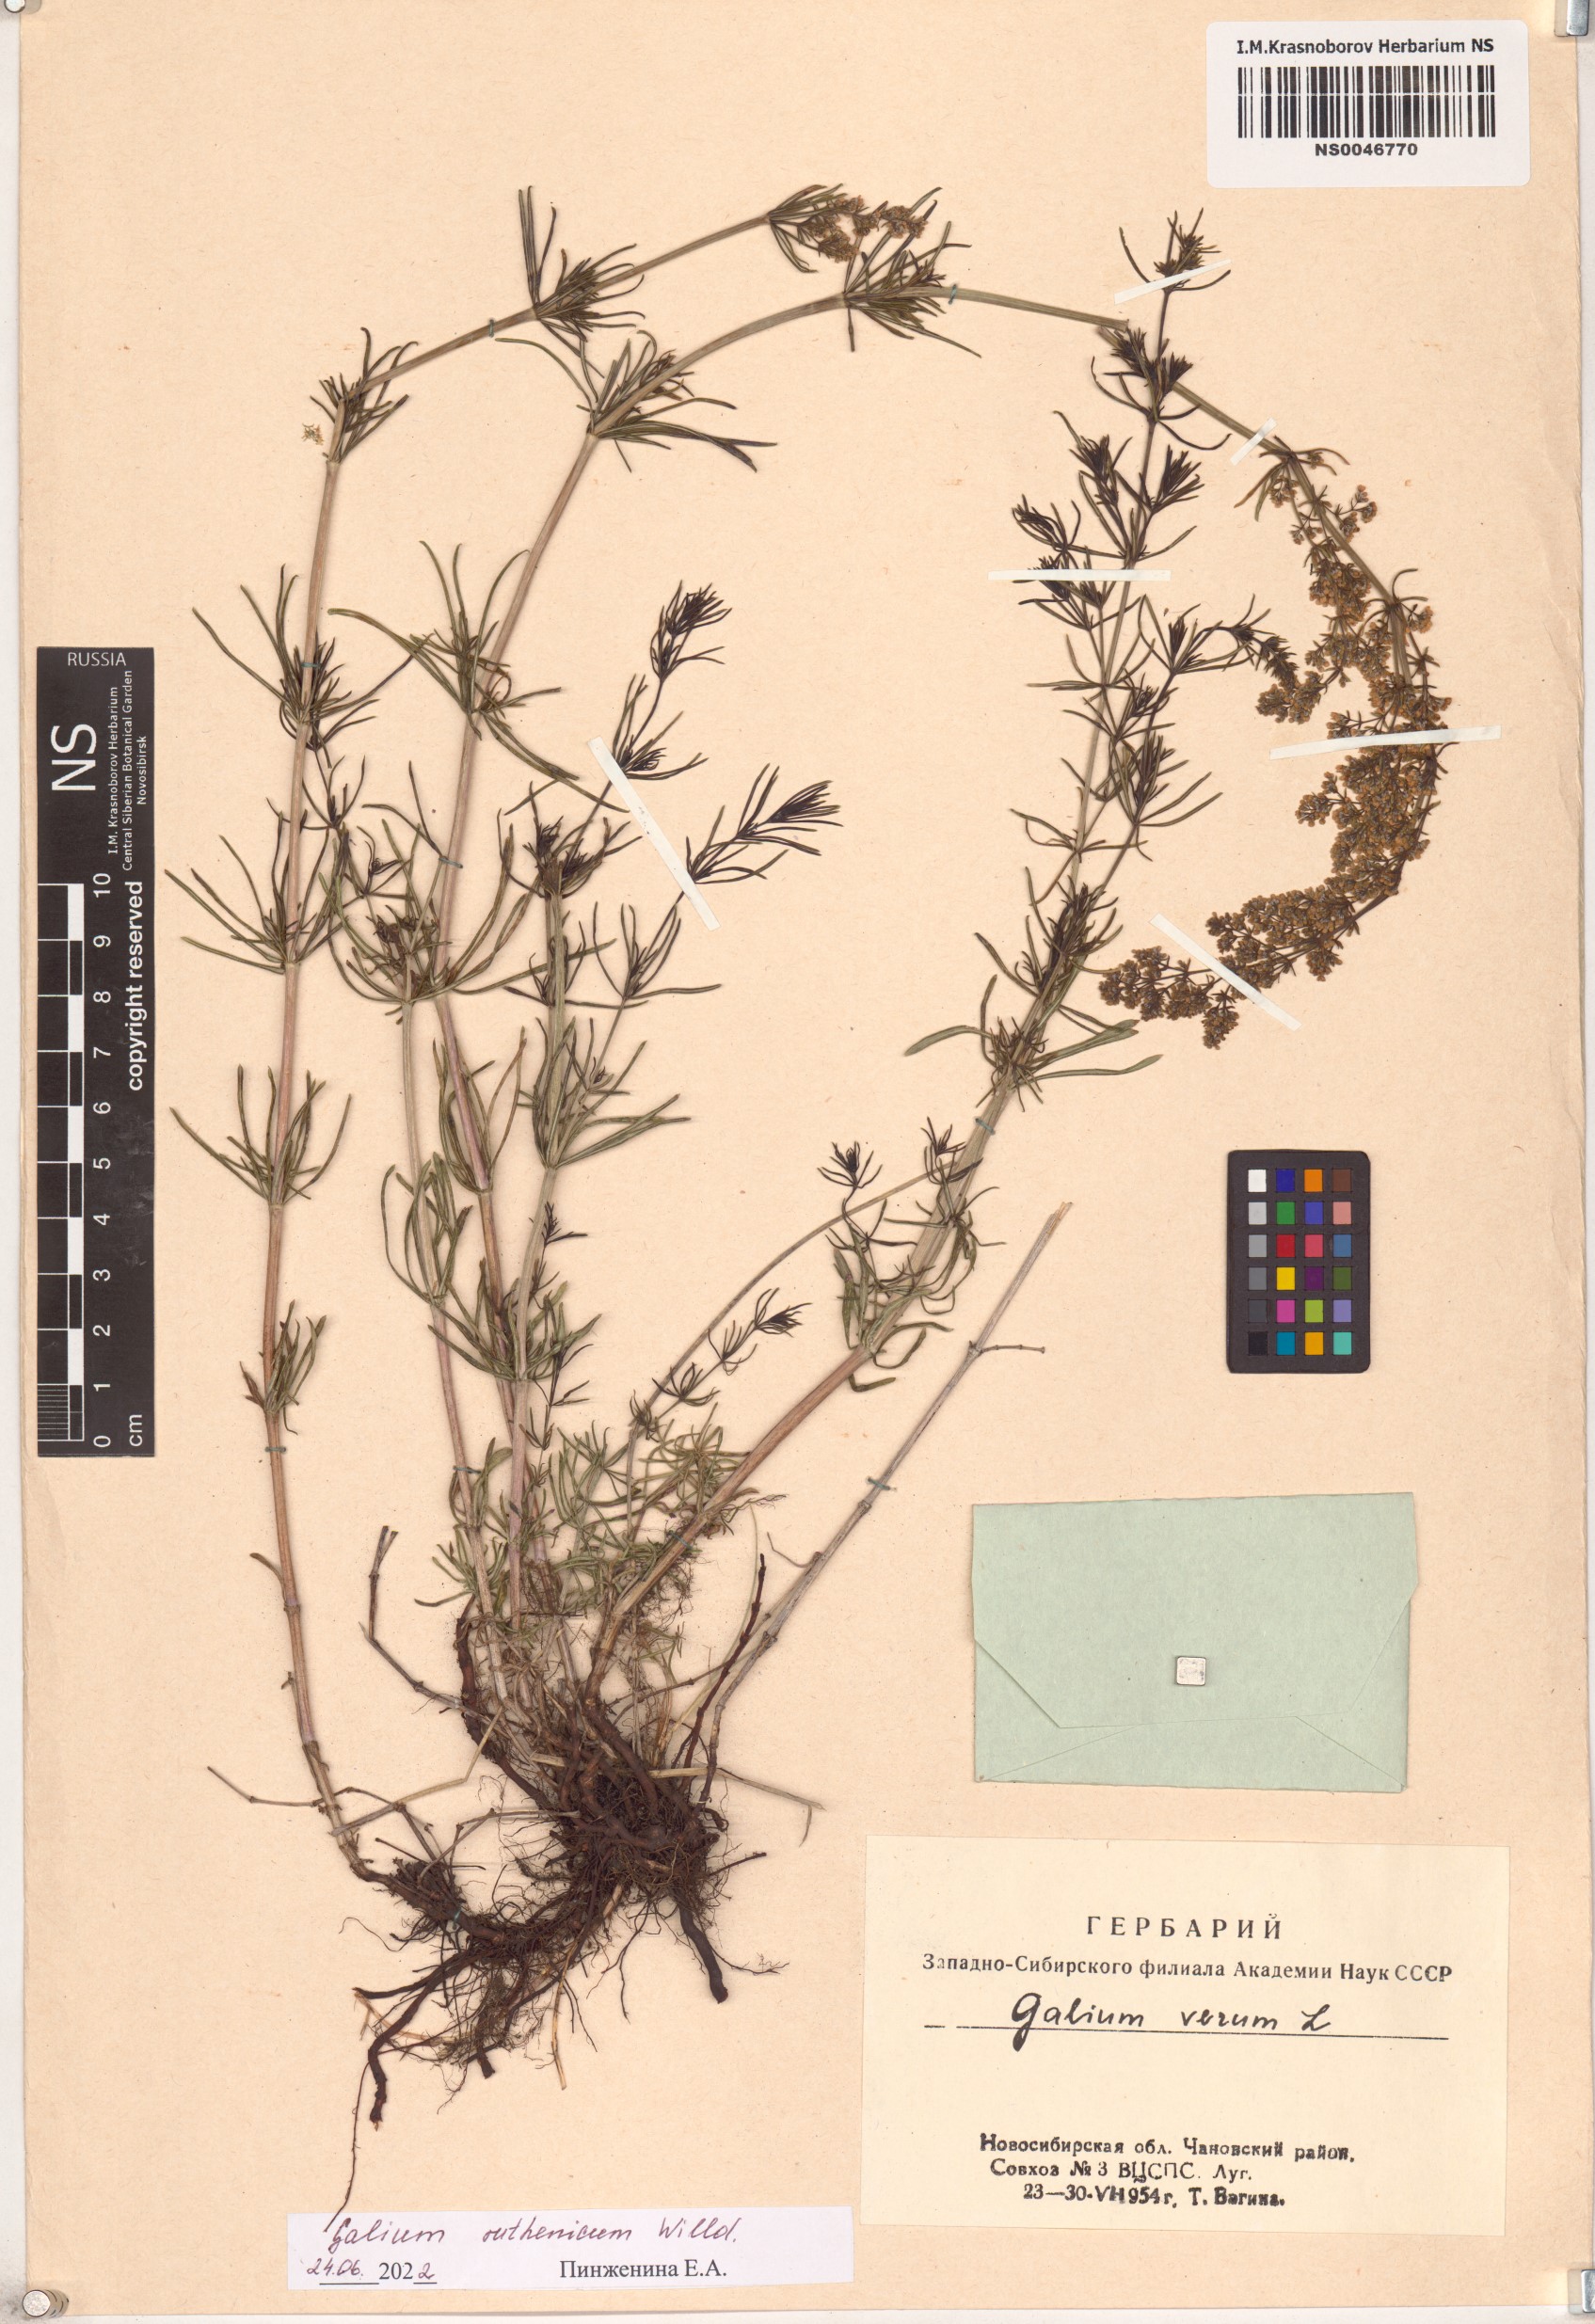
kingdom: Plantae
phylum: Tracheophyta
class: Magnoliopsida
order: Gentianales
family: Rubiaceae
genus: Galium
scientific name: Galium verum
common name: Lady's bedstraw
